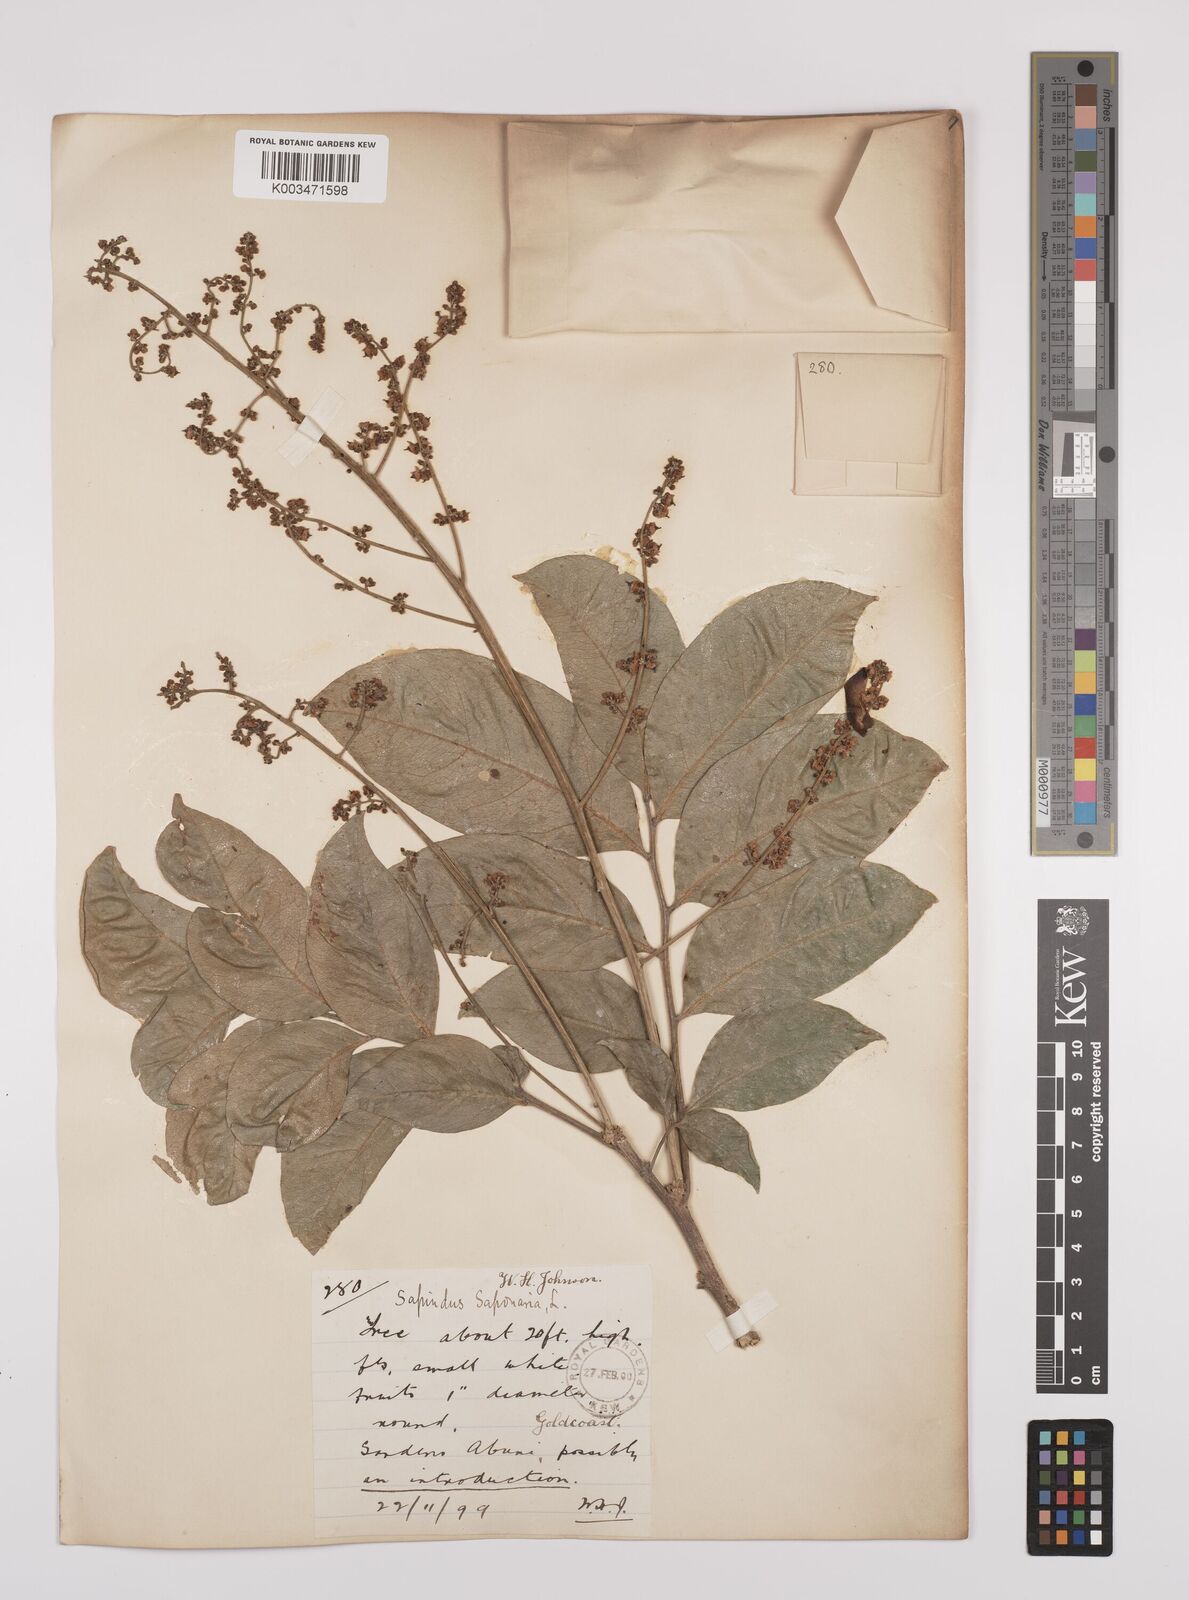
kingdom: Plantae
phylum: Tracheophyta
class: Magnoliopsida
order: Sapindales
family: Sapindaceae
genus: Sapindus
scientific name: Sapindus
